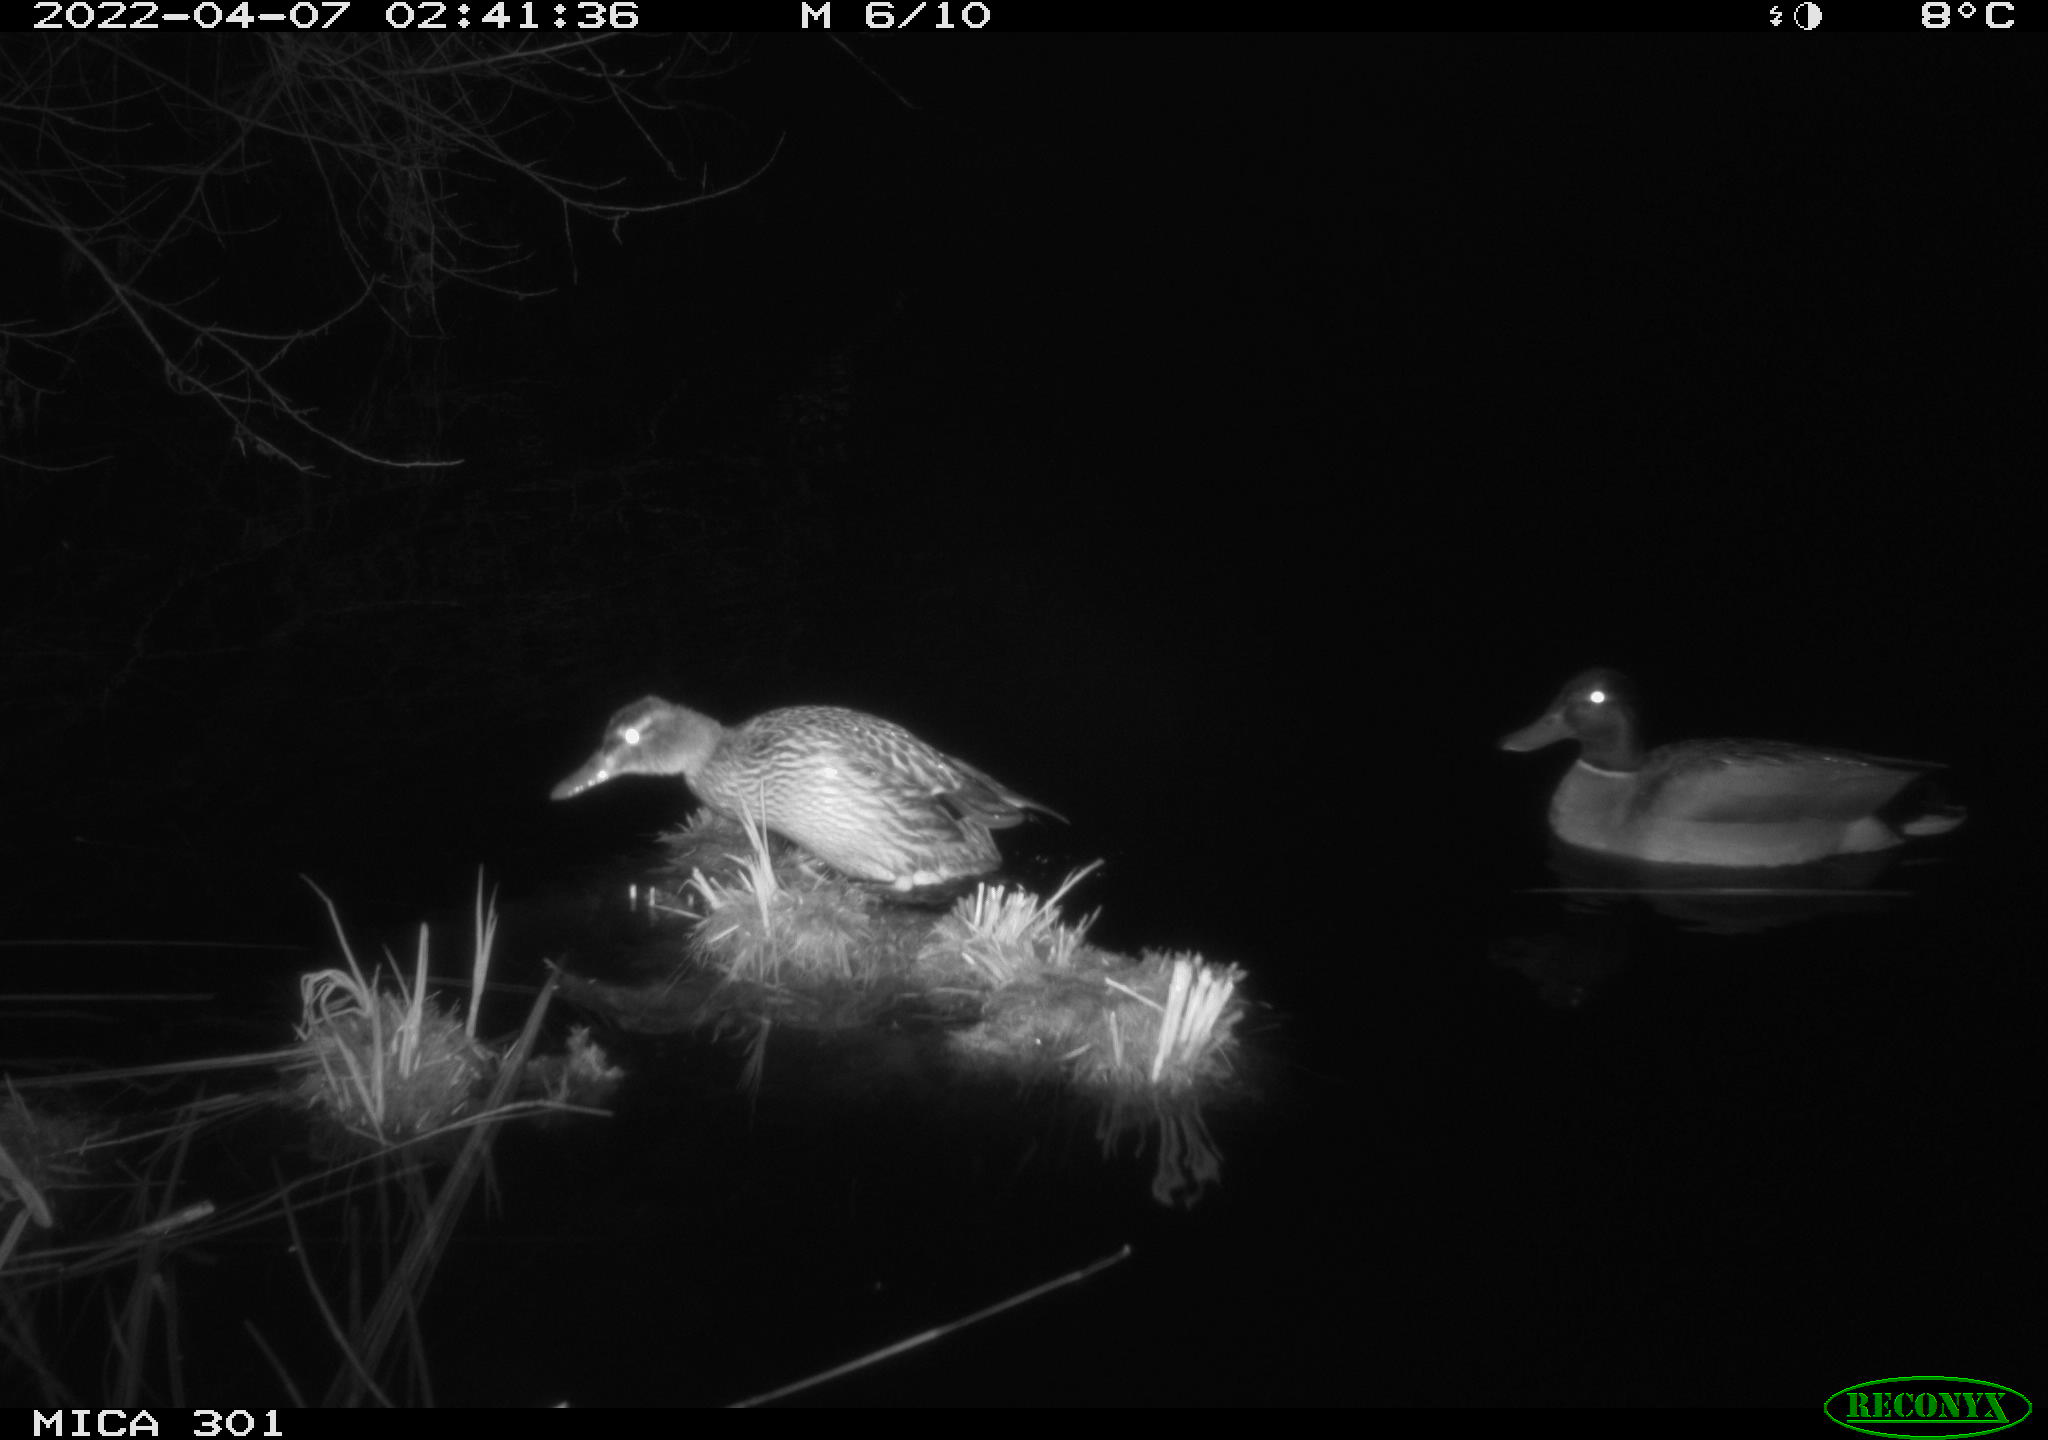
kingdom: Animalia
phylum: Chordata
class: Aves
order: Anseriformes
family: Anatidae
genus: Anas
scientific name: Anas platyrhynchos
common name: Mallard
